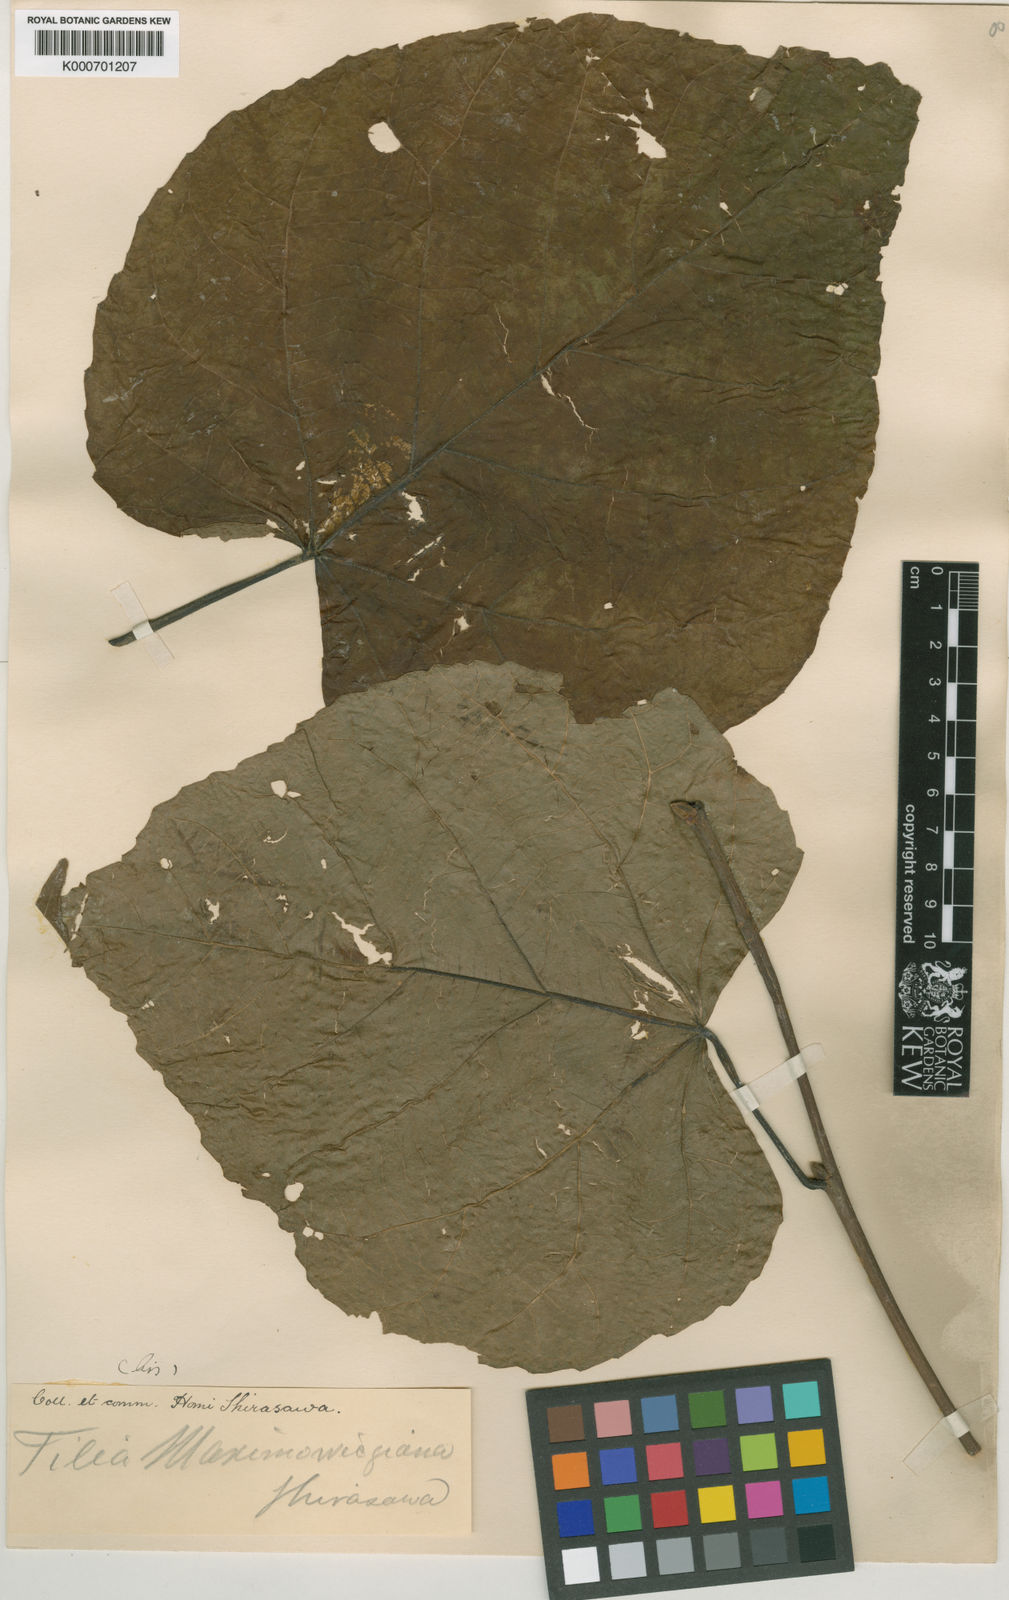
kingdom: Plantae
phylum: Tracheophyta
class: Magnoliopsida
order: Malvales
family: Malvaceae
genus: Tilia
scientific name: Tilia maximowicziana
